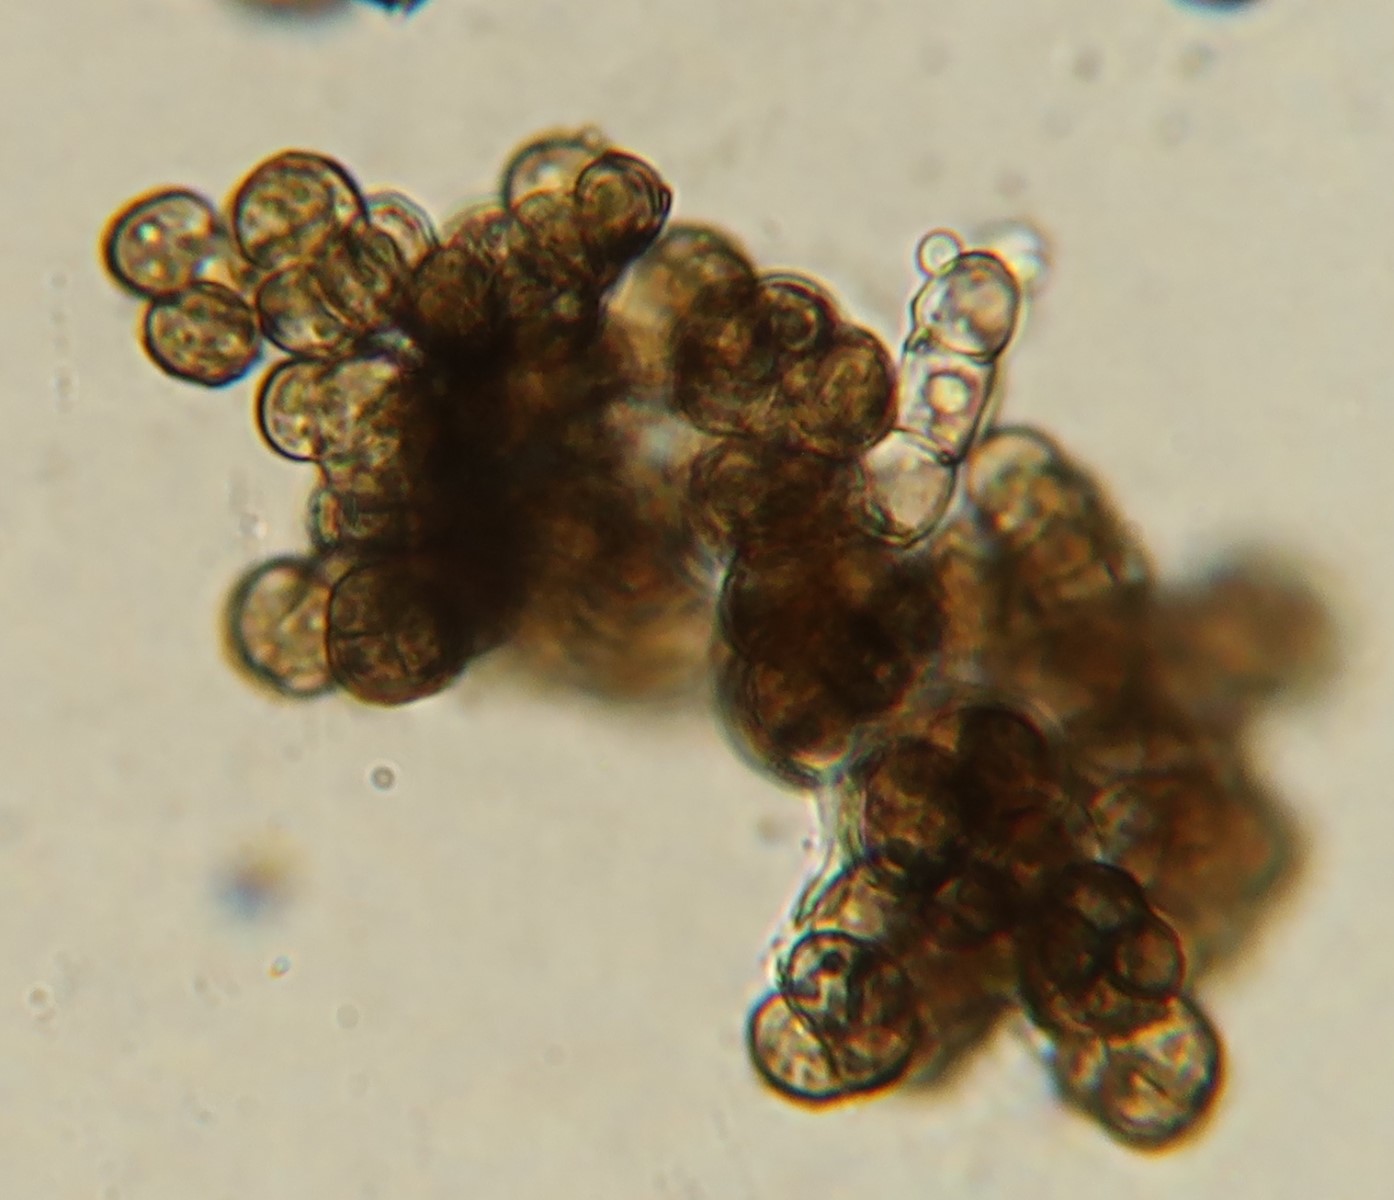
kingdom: Fungi
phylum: Ascomycota
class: Leotiomycetes
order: Helotiales
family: Mollisiaceae
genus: Trimmatostroma
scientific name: Trimmatostroma betulinum
